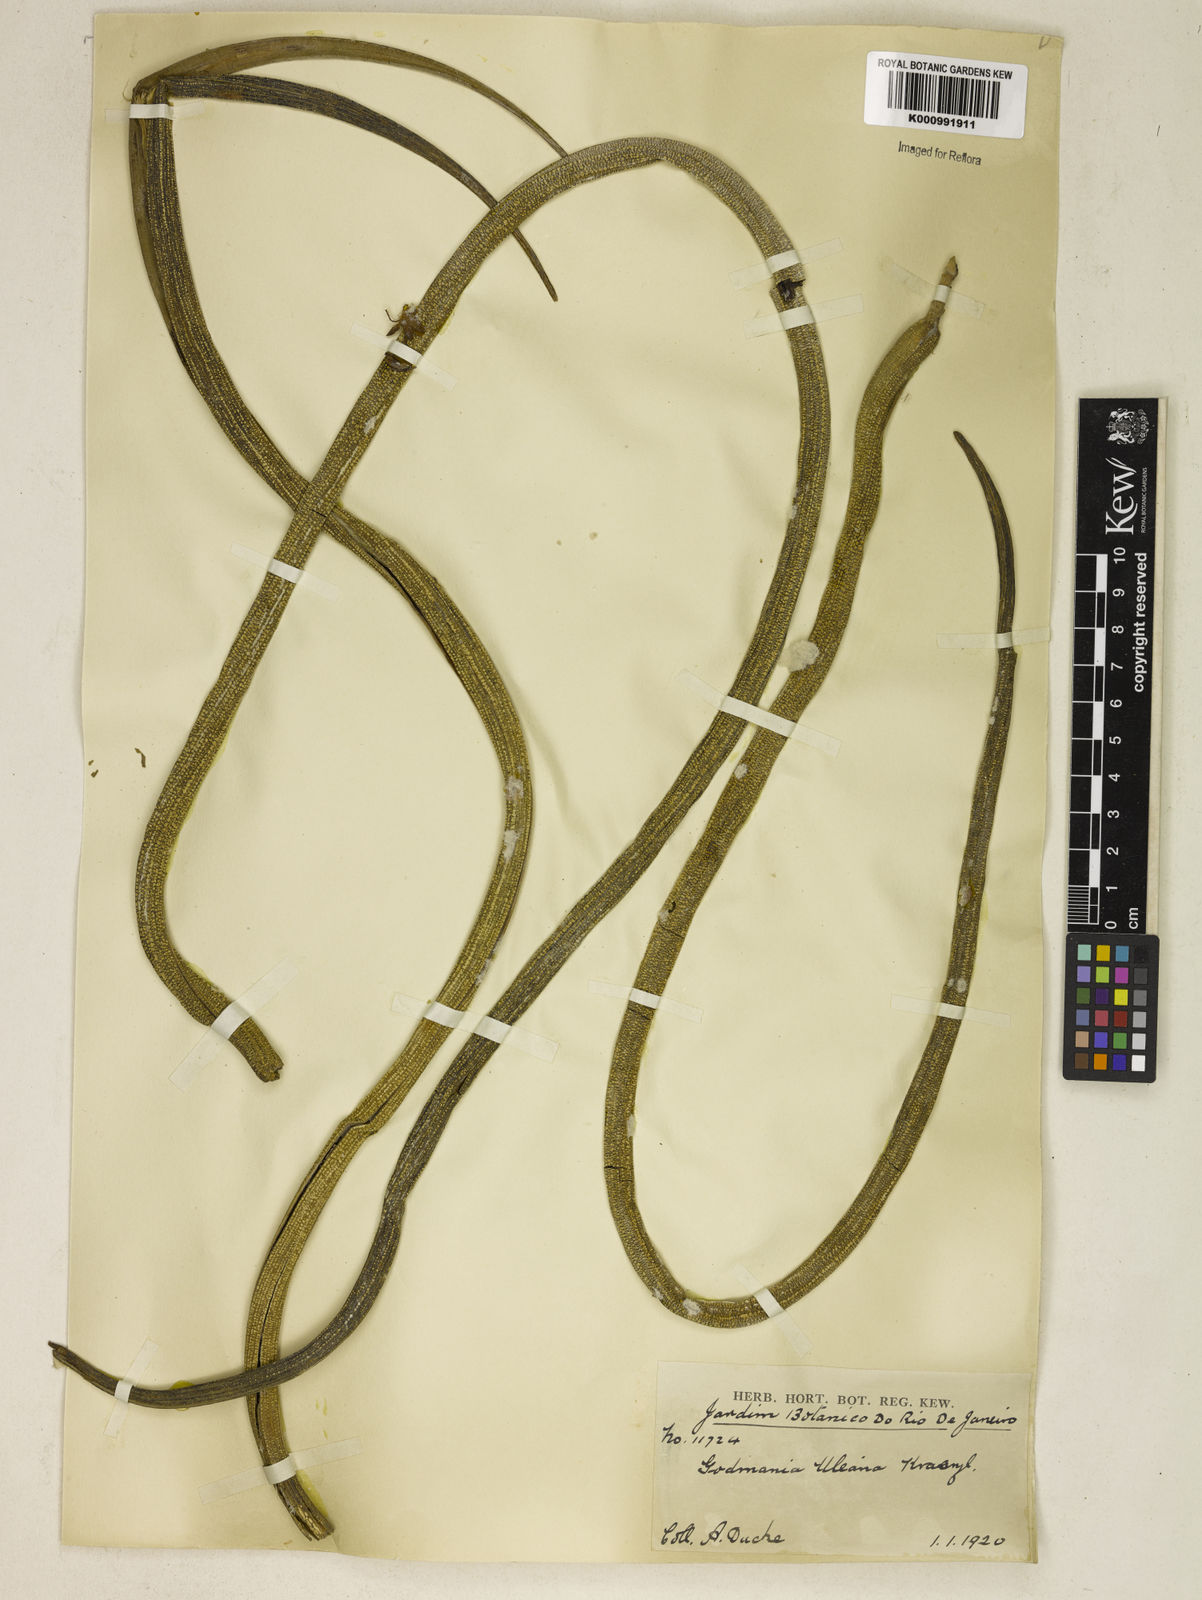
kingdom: Plantae
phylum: Tracheophyta
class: Magnoliopsida
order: Lamiales
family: Bignoniaceae
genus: Godmania
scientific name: Godmania aesculifolia
